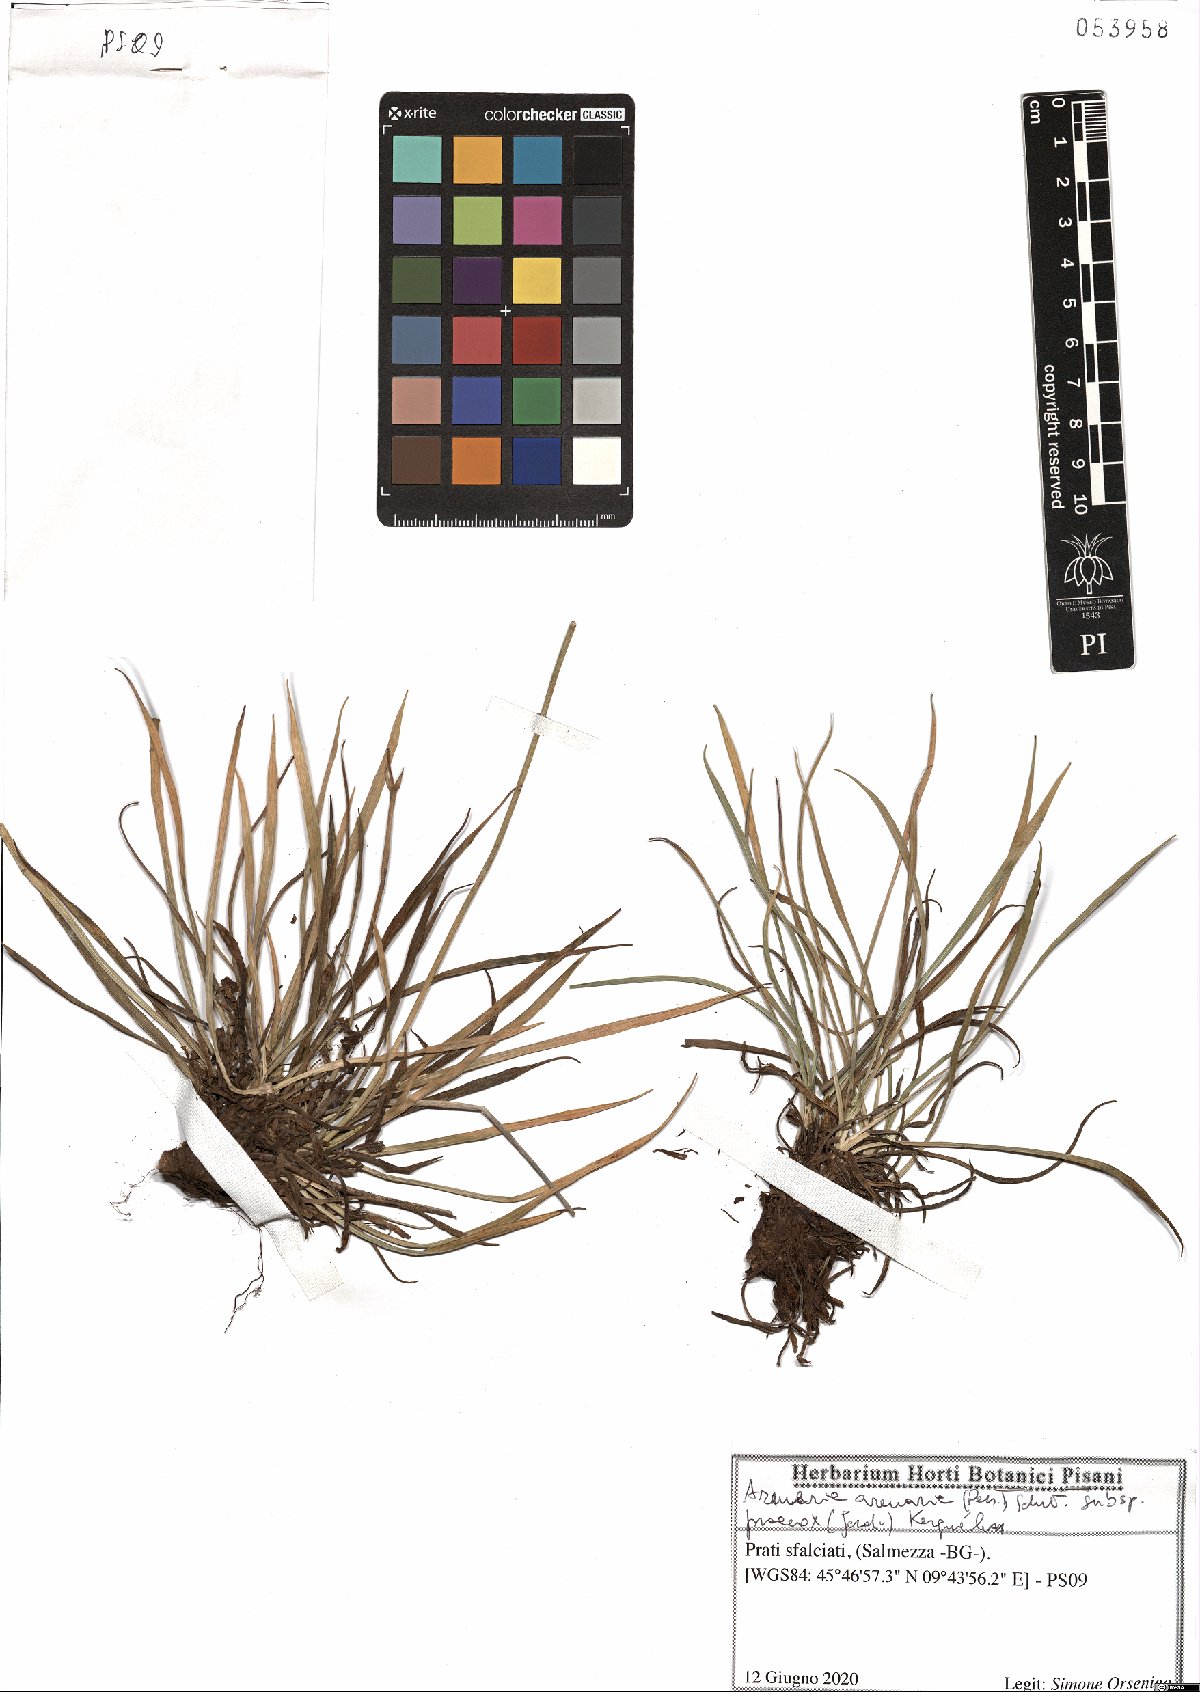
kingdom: Plantae
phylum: Tracheophyta
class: Magnoliopsida
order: Caryophyllales
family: Plumbaginaceae
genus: Armeria
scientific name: Armeria arenaria
